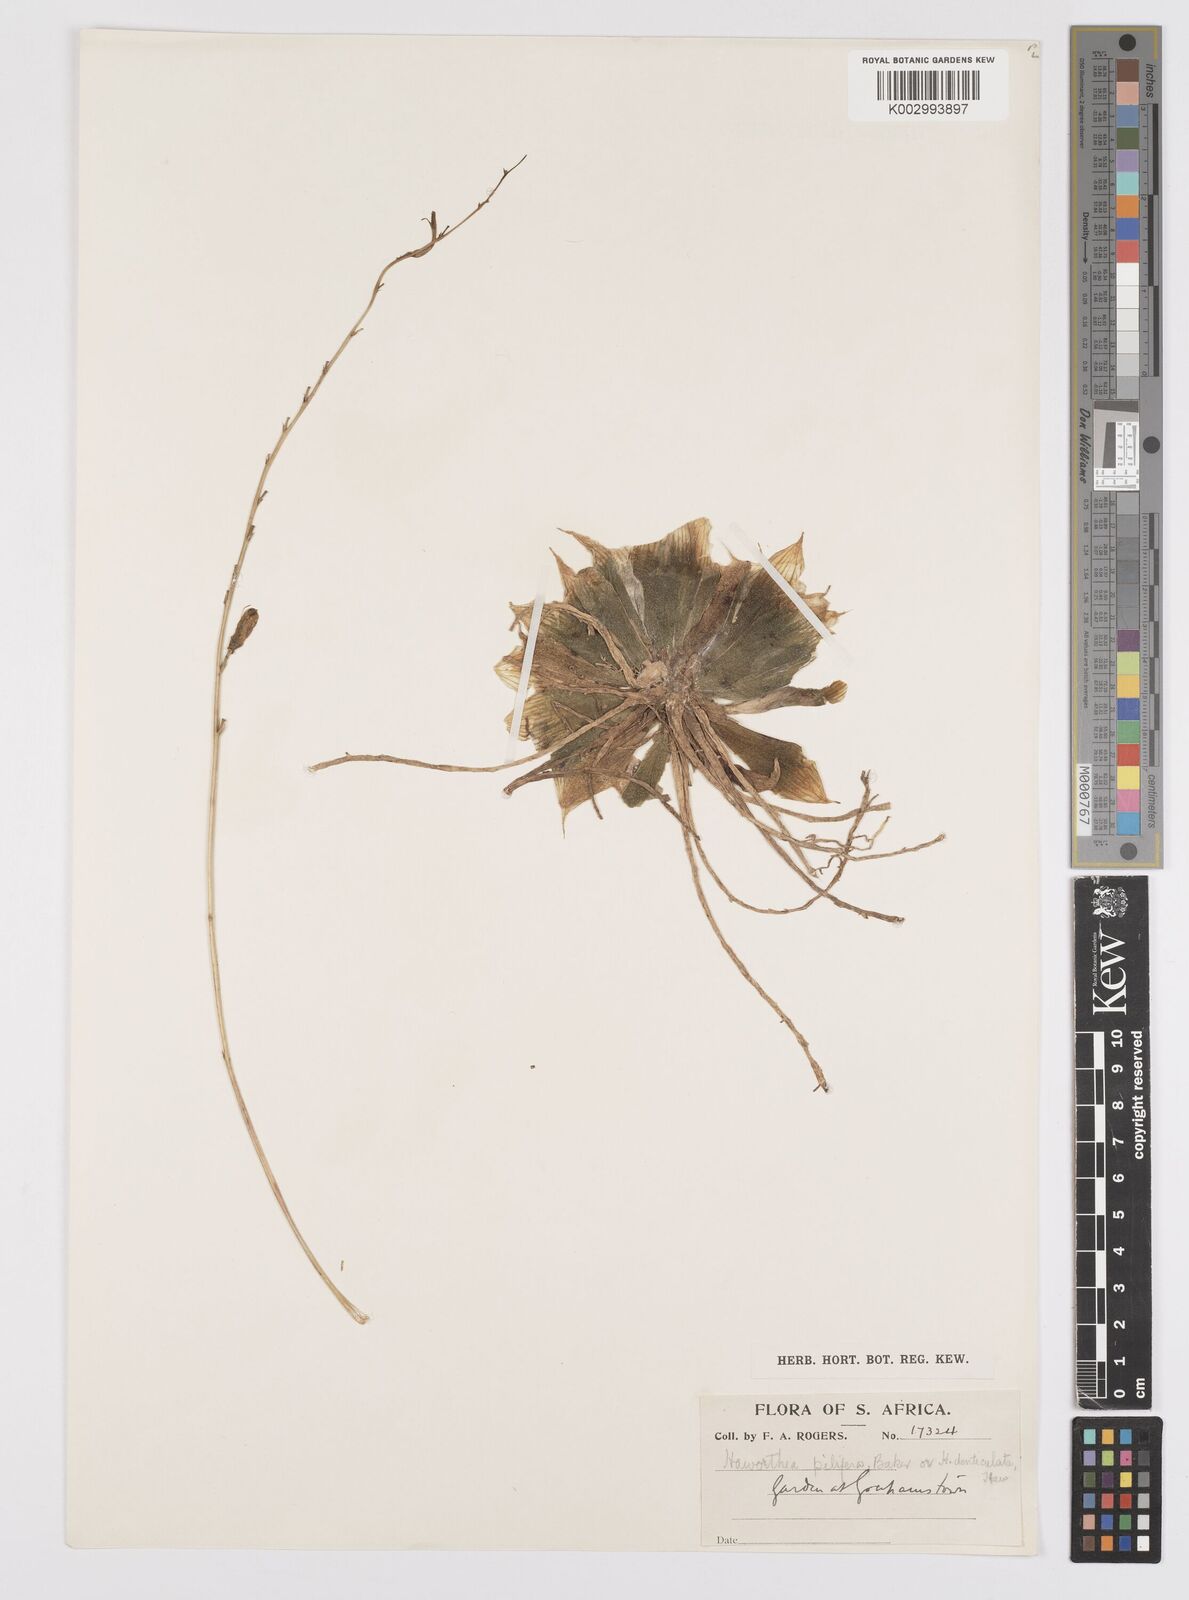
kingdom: Plantae
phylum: Tracheophyta
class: Liliopsida
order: Asparagales
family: Asphodelaceae
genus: Haworthia
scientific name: Haworthia aristata
